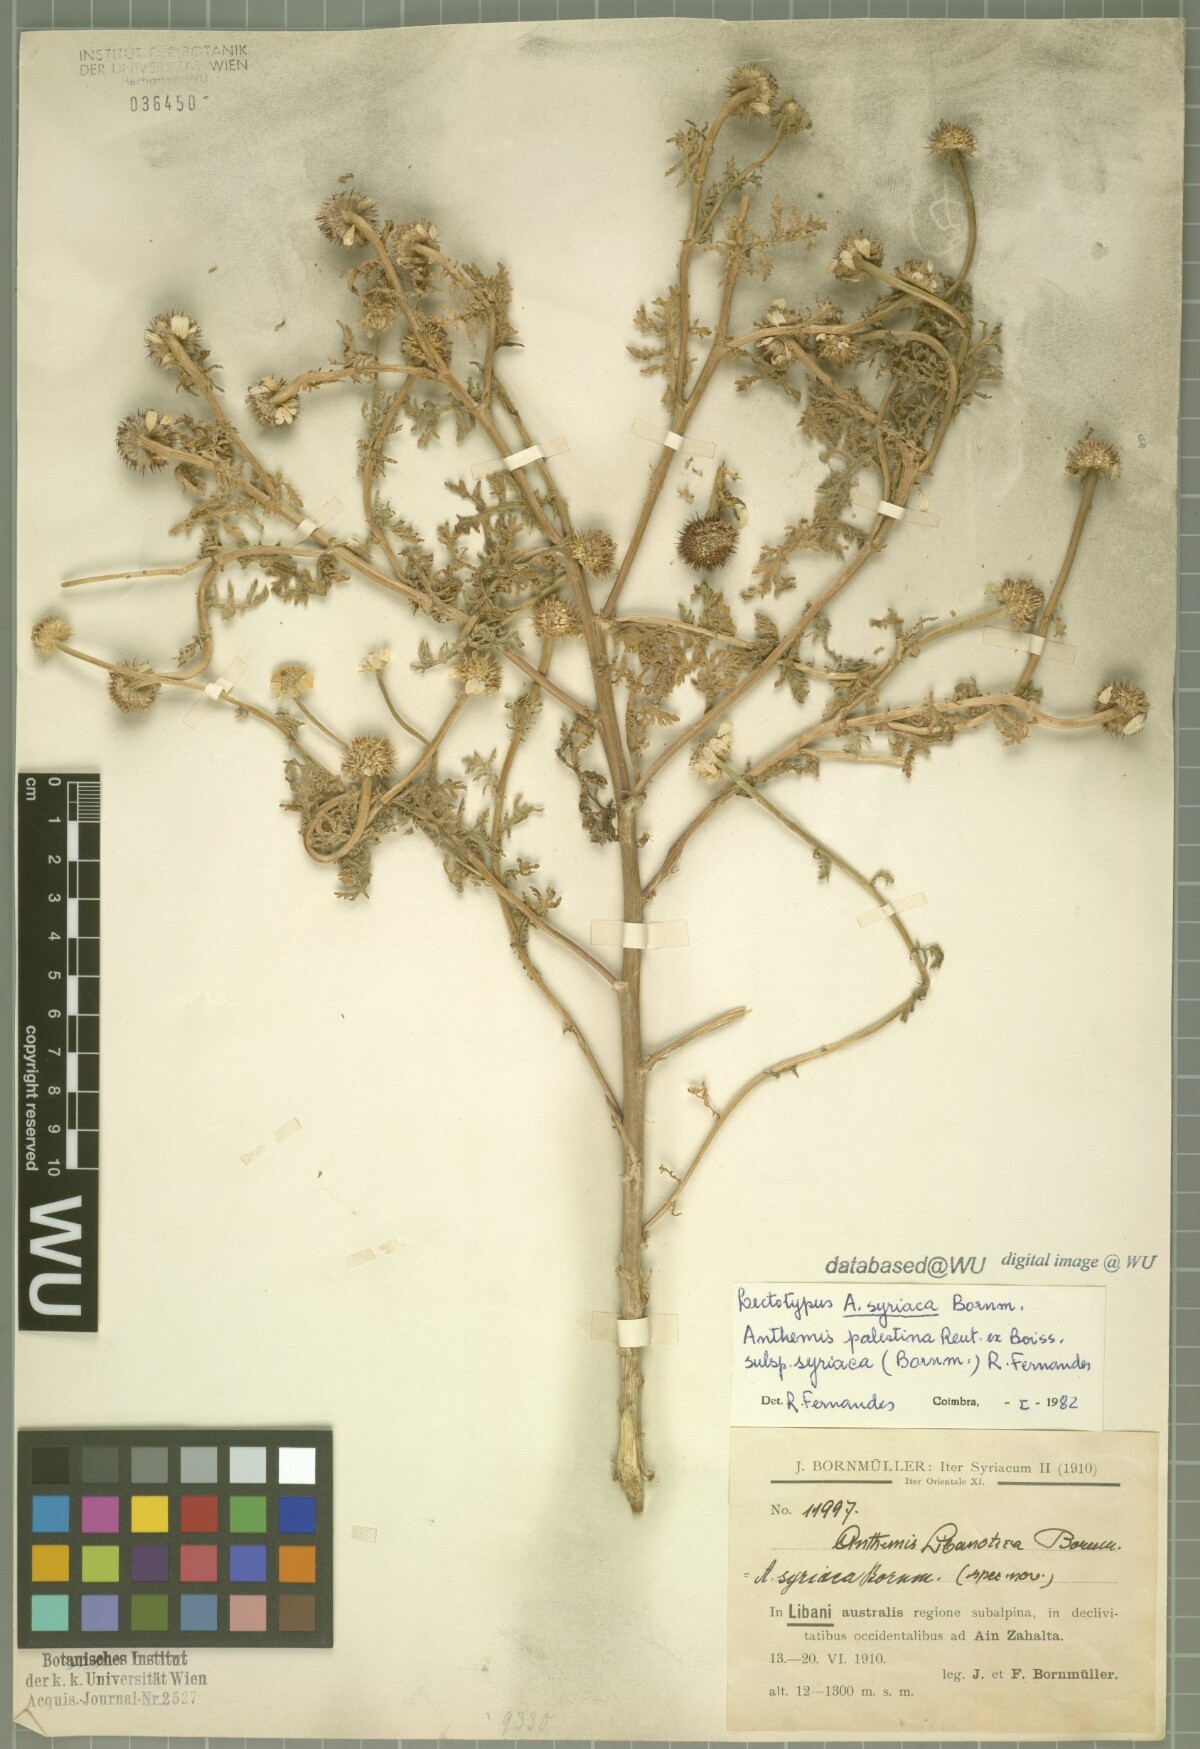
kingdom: Plantae
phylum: Tracheophyta
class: Magnoliopsida
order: Asterales
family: Asteraceae
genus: Cota
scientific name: Cota palaestina
